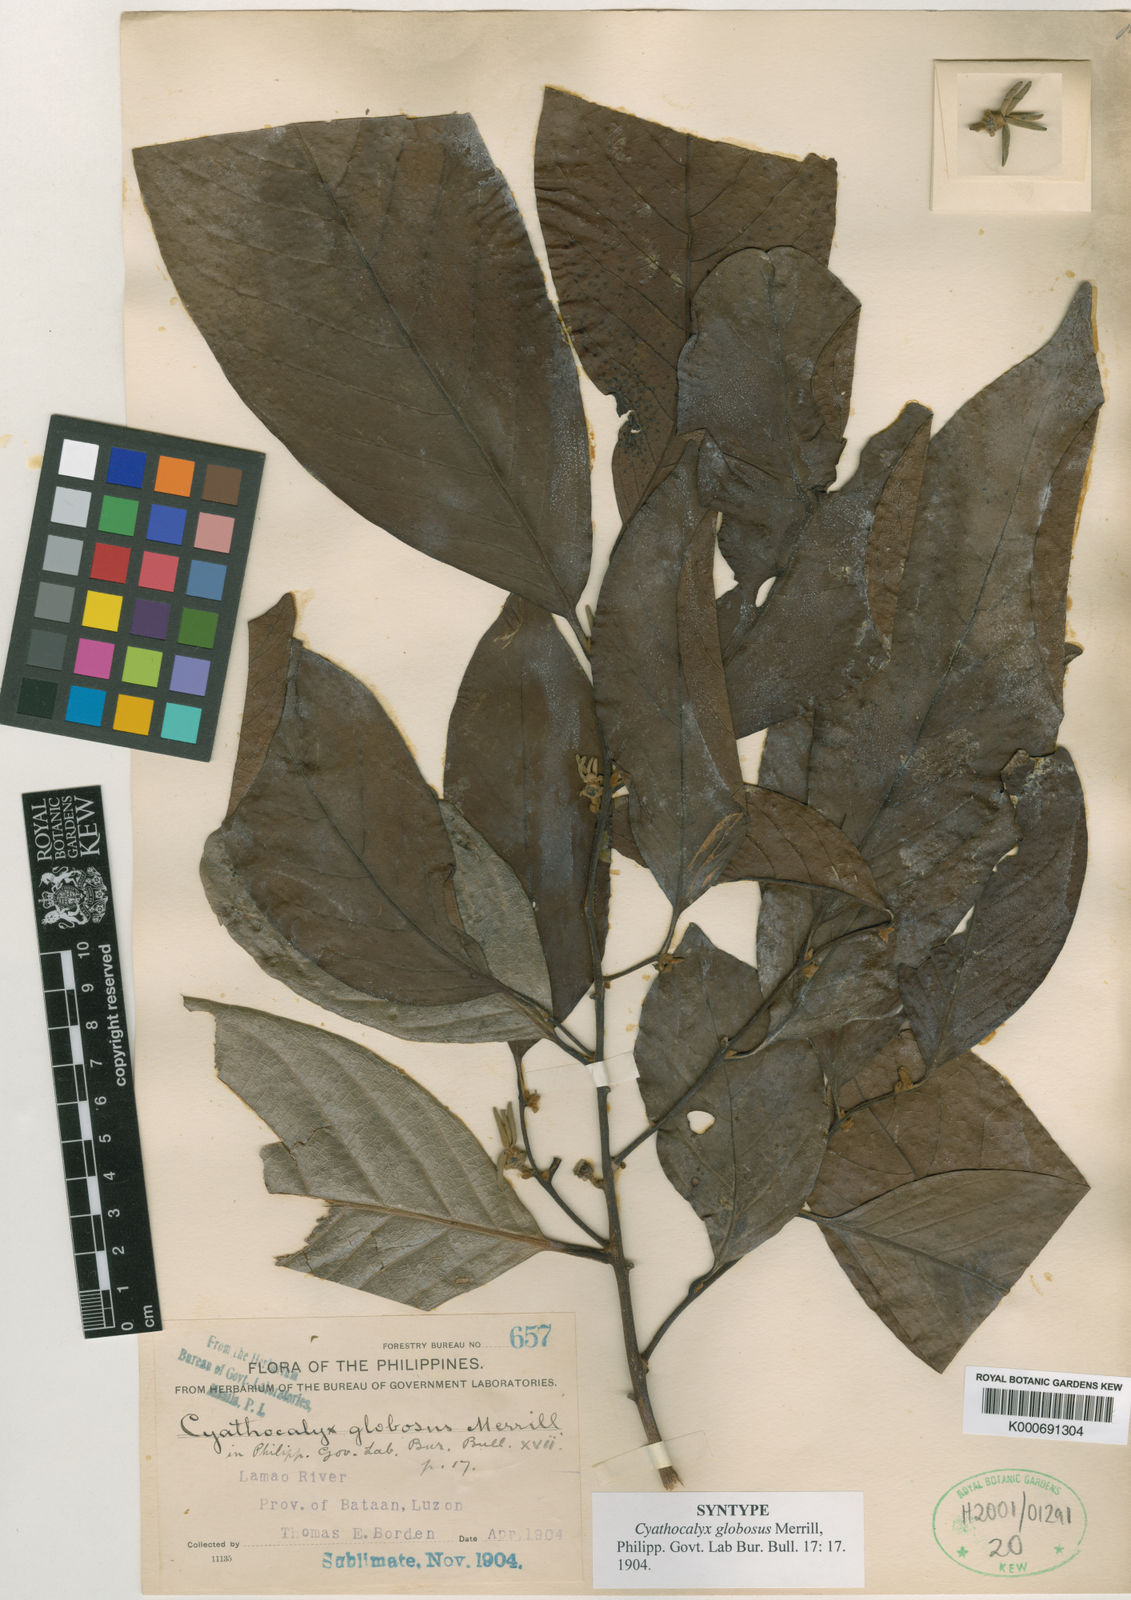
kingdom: Plantae
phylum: Tracheophyta
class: Magnoliopsida
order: Magnoliales
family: Annonaceae
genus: Cyathocalyx
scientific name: Cyathocalyx globosus
